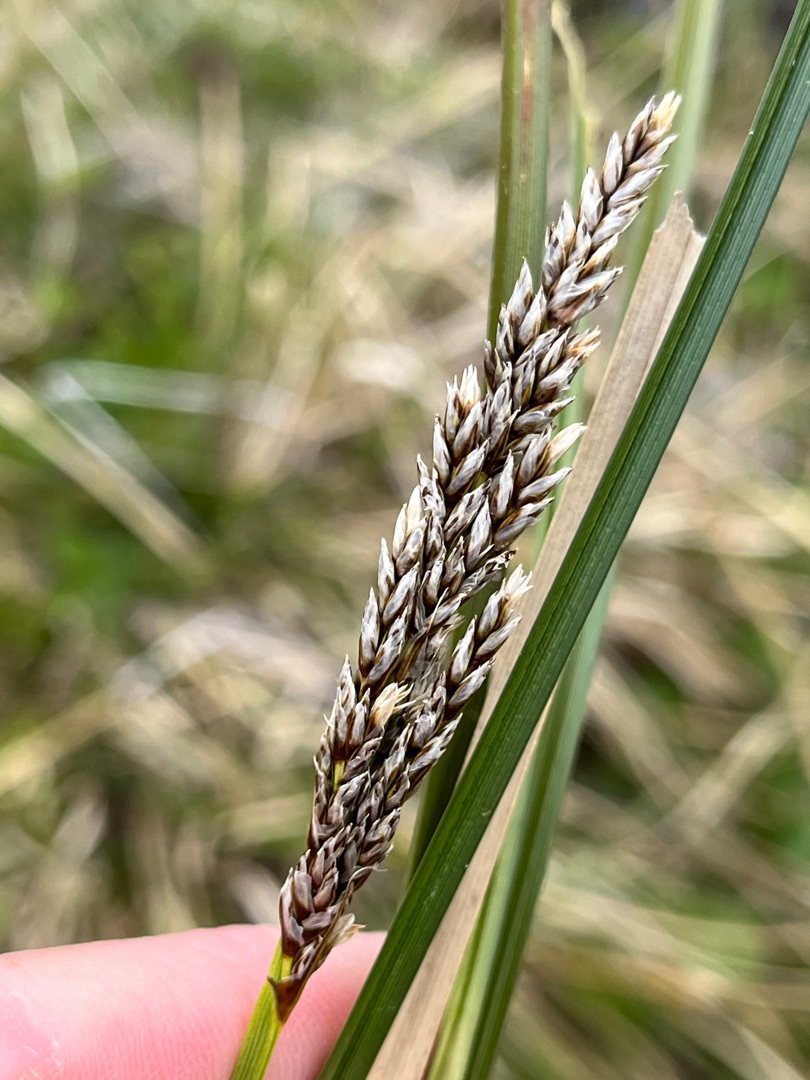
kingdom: Plantae
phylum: Tracheophyta
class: Liliopsida
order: Poales
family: Cyperaceae
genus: Carex
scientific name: Carex paniculata
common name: Top-star
